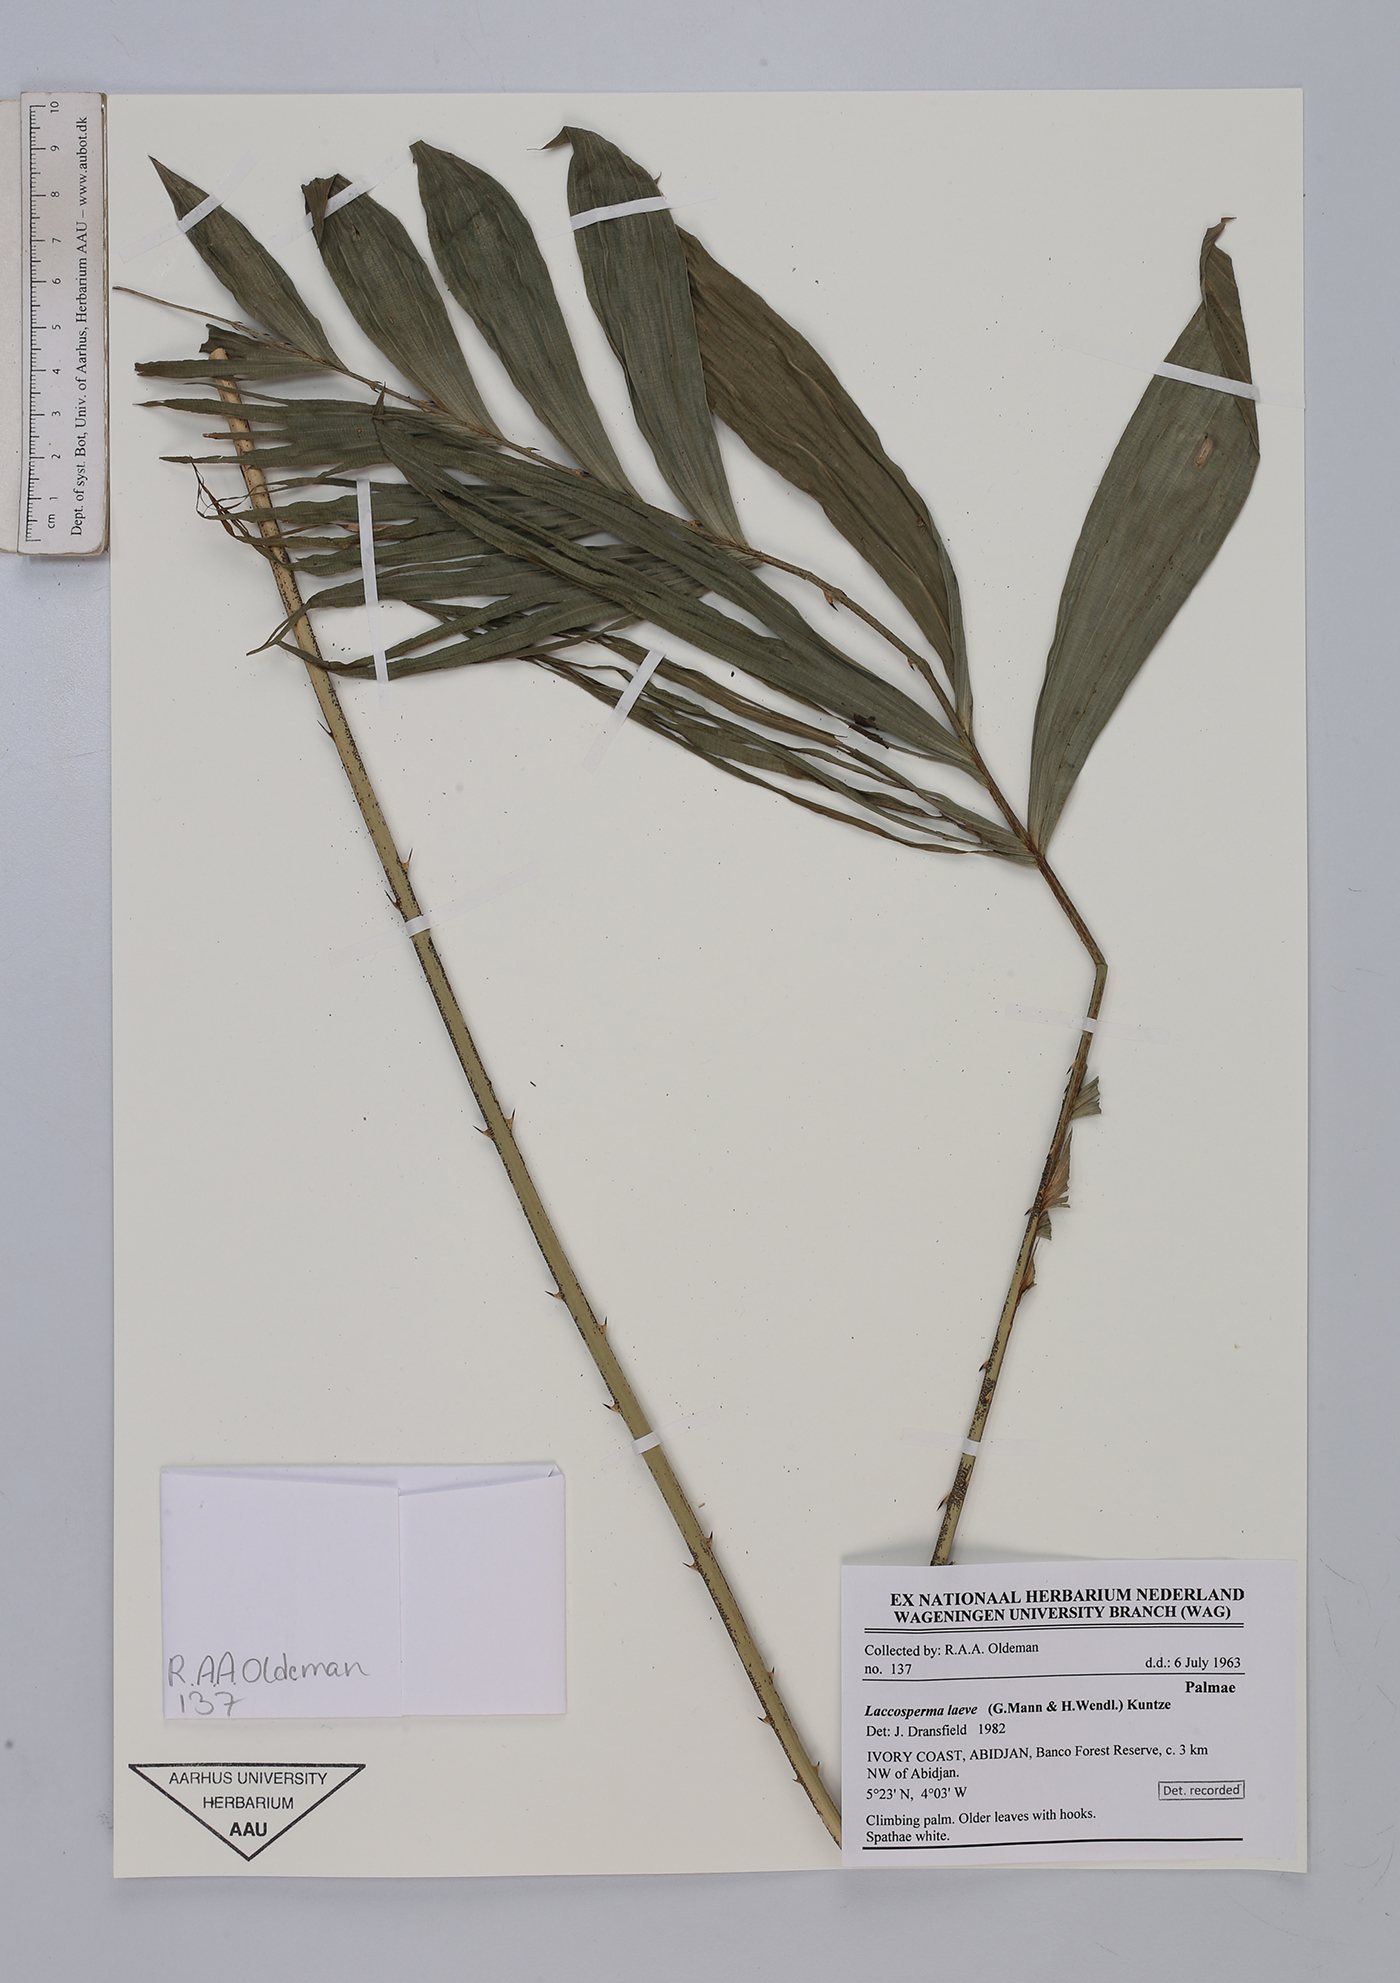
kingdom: Plantae
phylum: Tracheophyta
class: Liliopsida
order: Arecales
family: Arecaceae
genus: Laccosperma
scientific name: Laccosperma laeve
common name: Rattan
